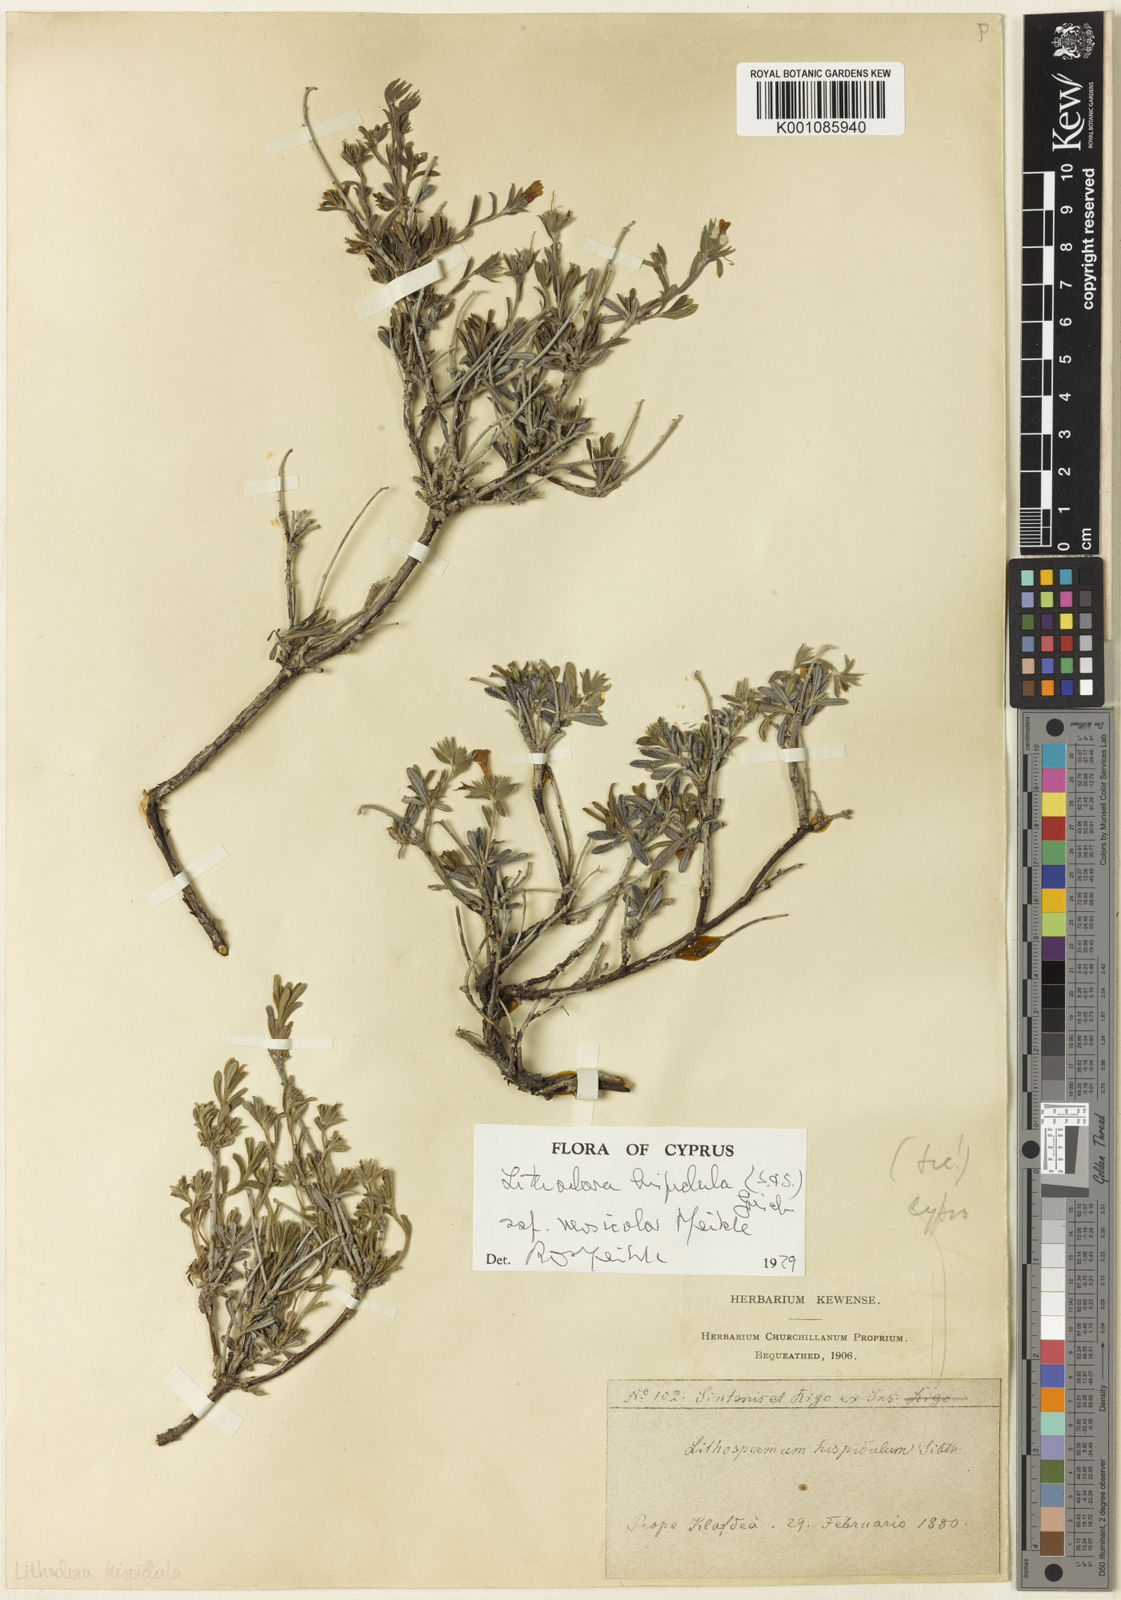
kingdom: Plantae
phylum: Tracheophyta
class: Magnoliopsida
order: Boraginales
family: Boraginaceae
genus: Lithodora
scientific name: Lithodora hispidula
